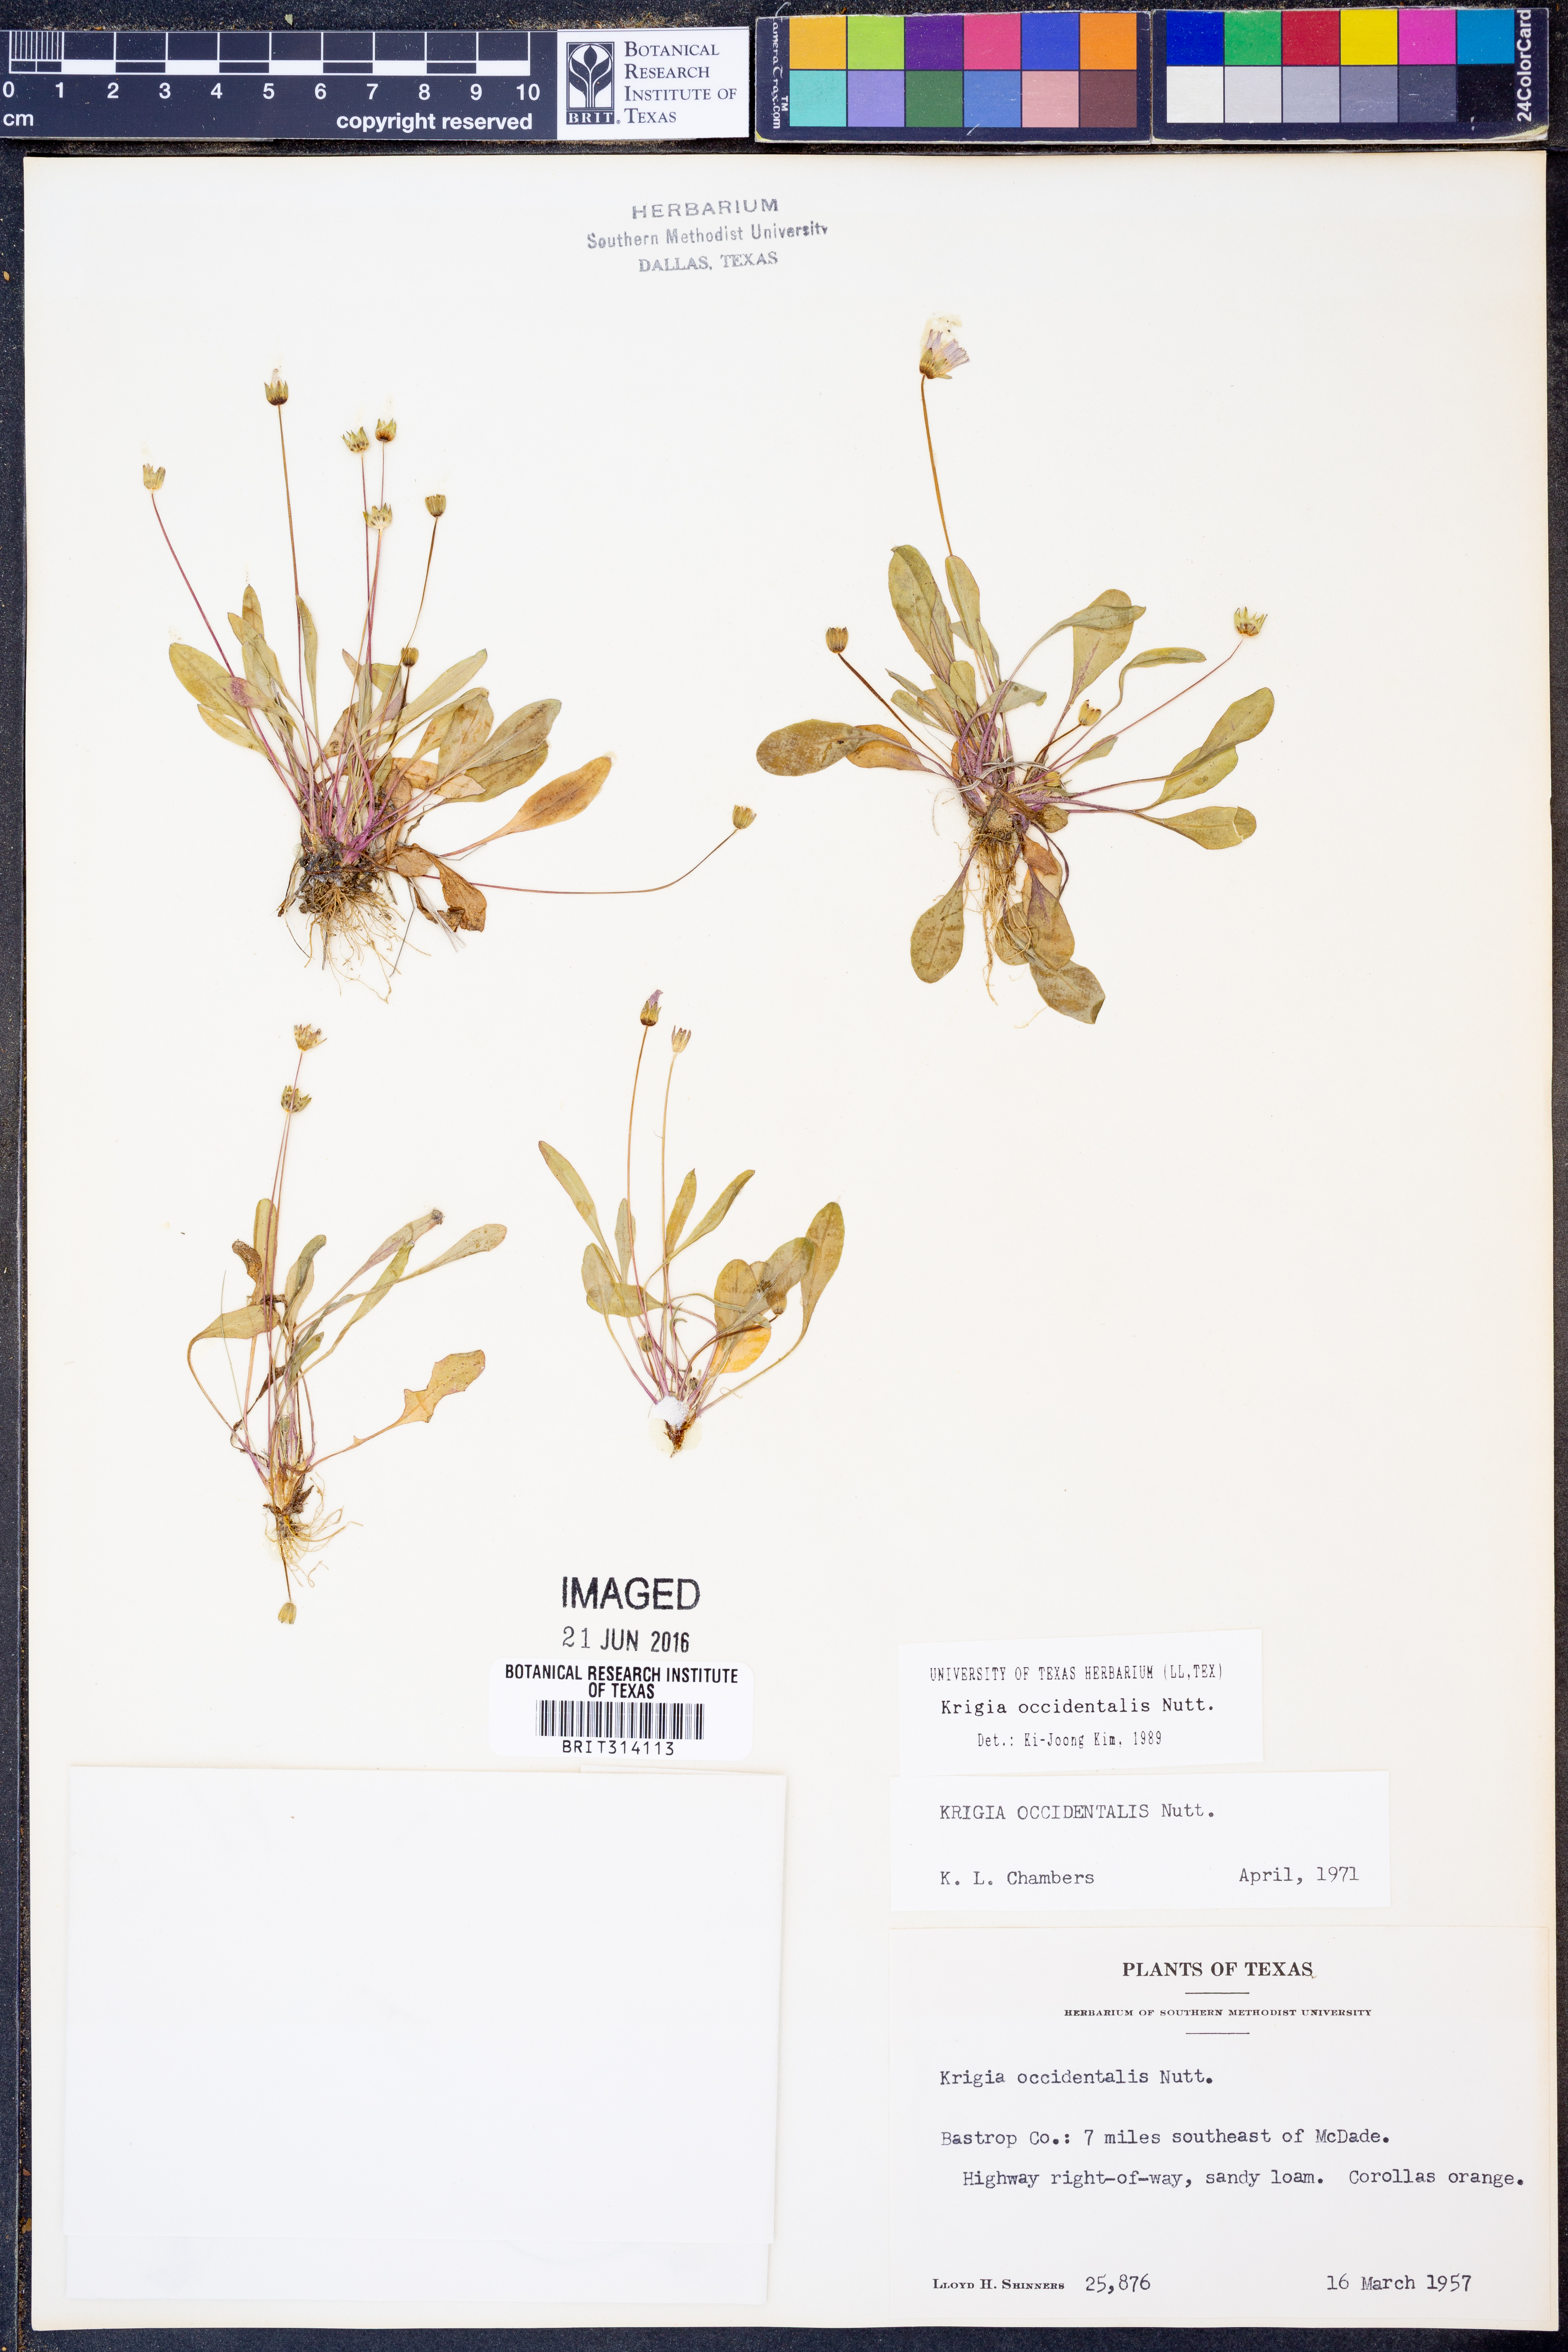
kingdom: Plantae
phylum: Tracheophyta
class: Magnoliopsida
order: Asterales
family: Asteraceae
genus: Krigia
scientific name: Krigia occidentalis
